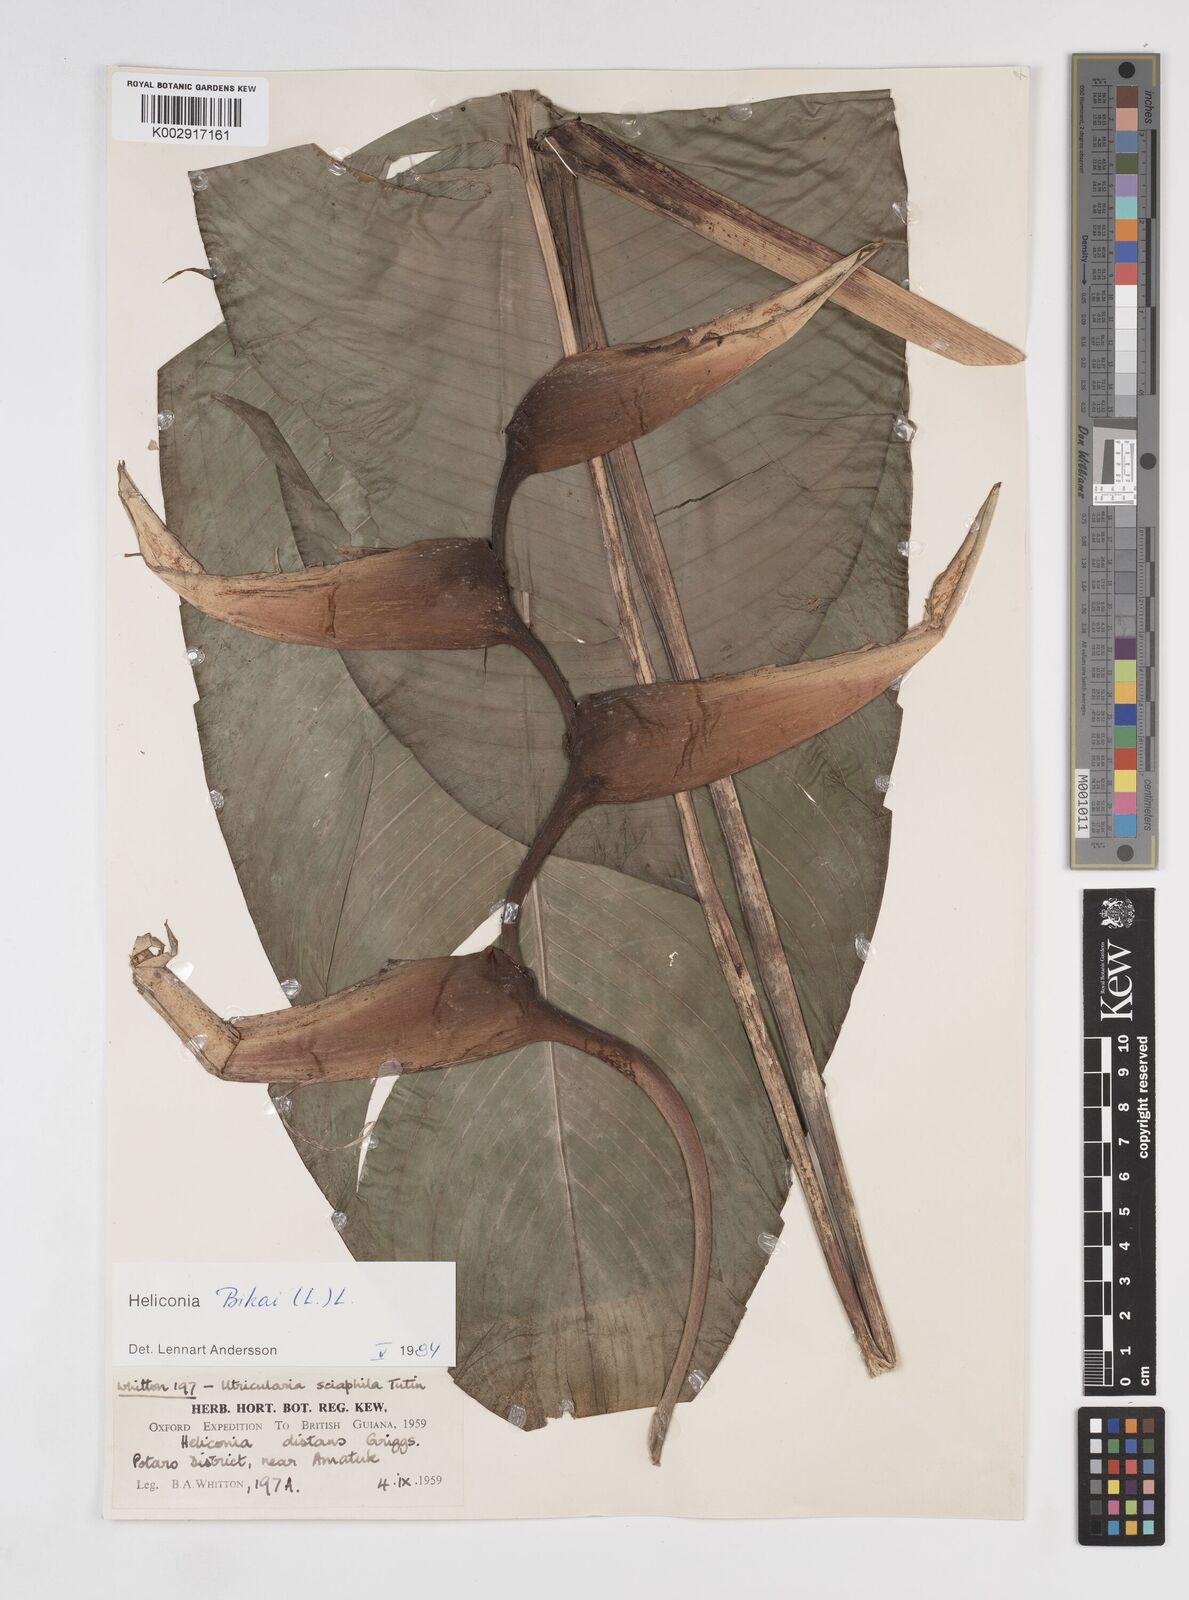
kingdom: Plantae
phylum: Tracheophyta
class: Liliopsida
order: Zingiberales
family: Heliconiaceae
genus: Heliconia
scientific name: Heliconia bihai
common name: Macaw flower
